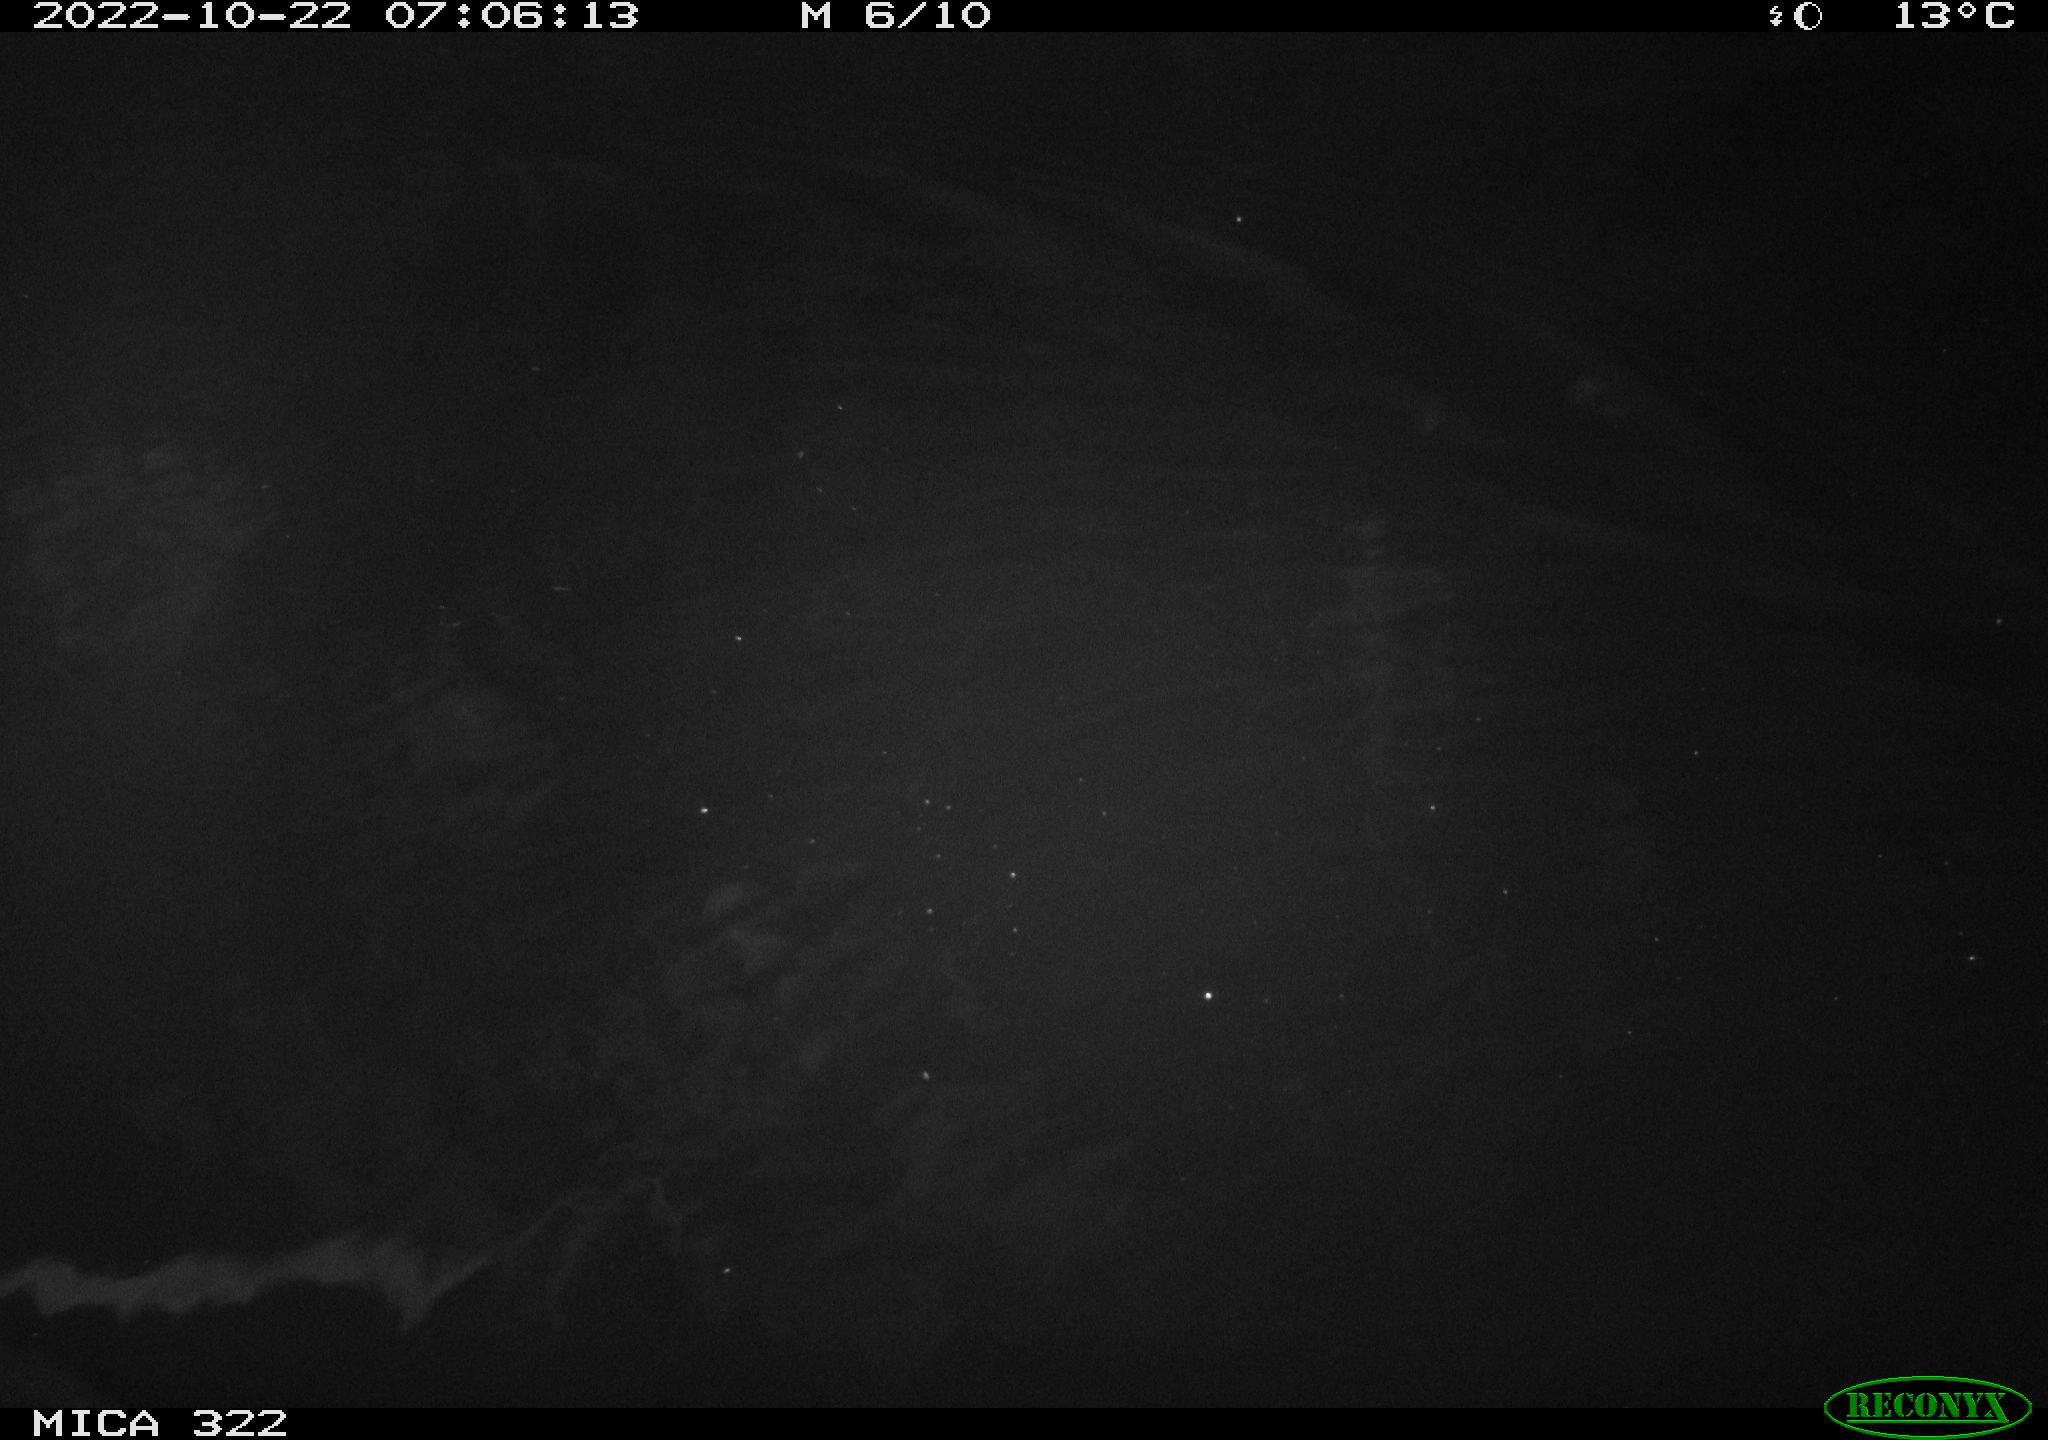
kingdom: Animalia
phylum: Chordata
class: Mammalia
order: Rodentia
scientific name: Rodentia
